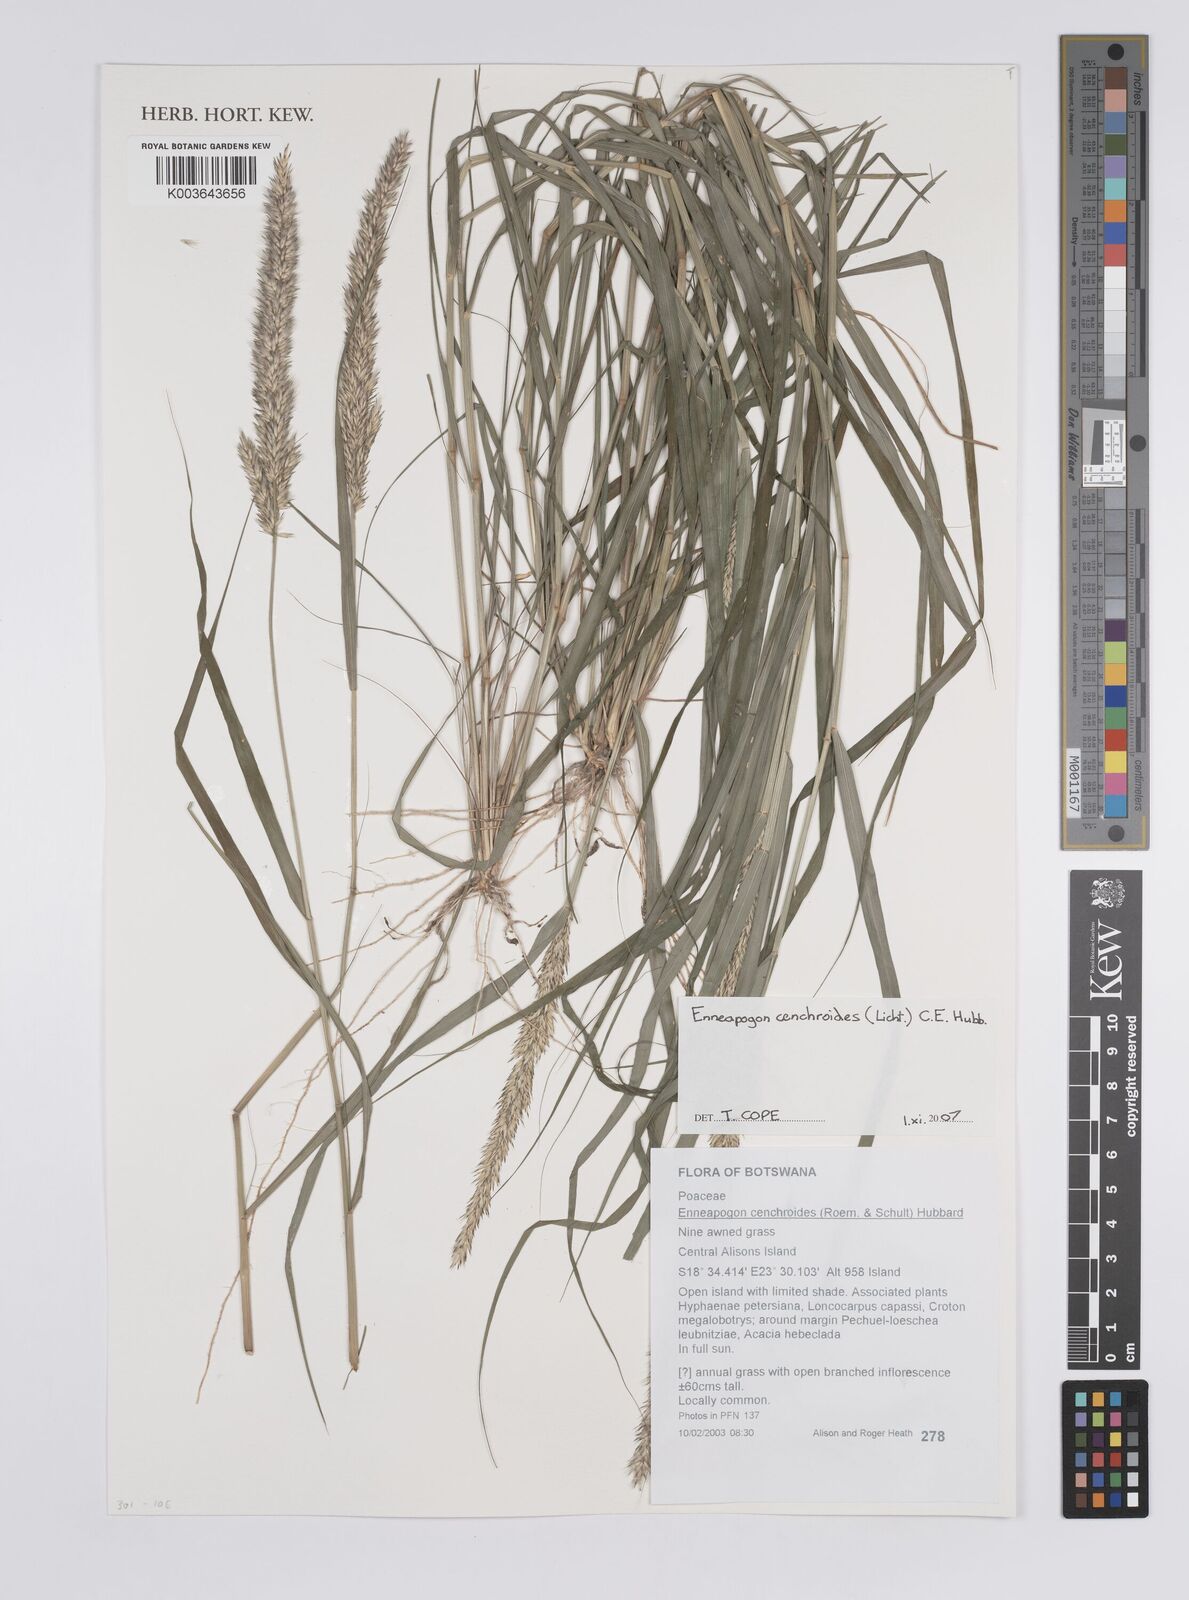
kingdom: Plantae
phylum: Tracheophyta
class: Liliopsida
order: Poales
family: Poaceae
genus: Enneapogon
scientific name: Enneapogon cenchroides
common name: Soft feather pappusgrass
